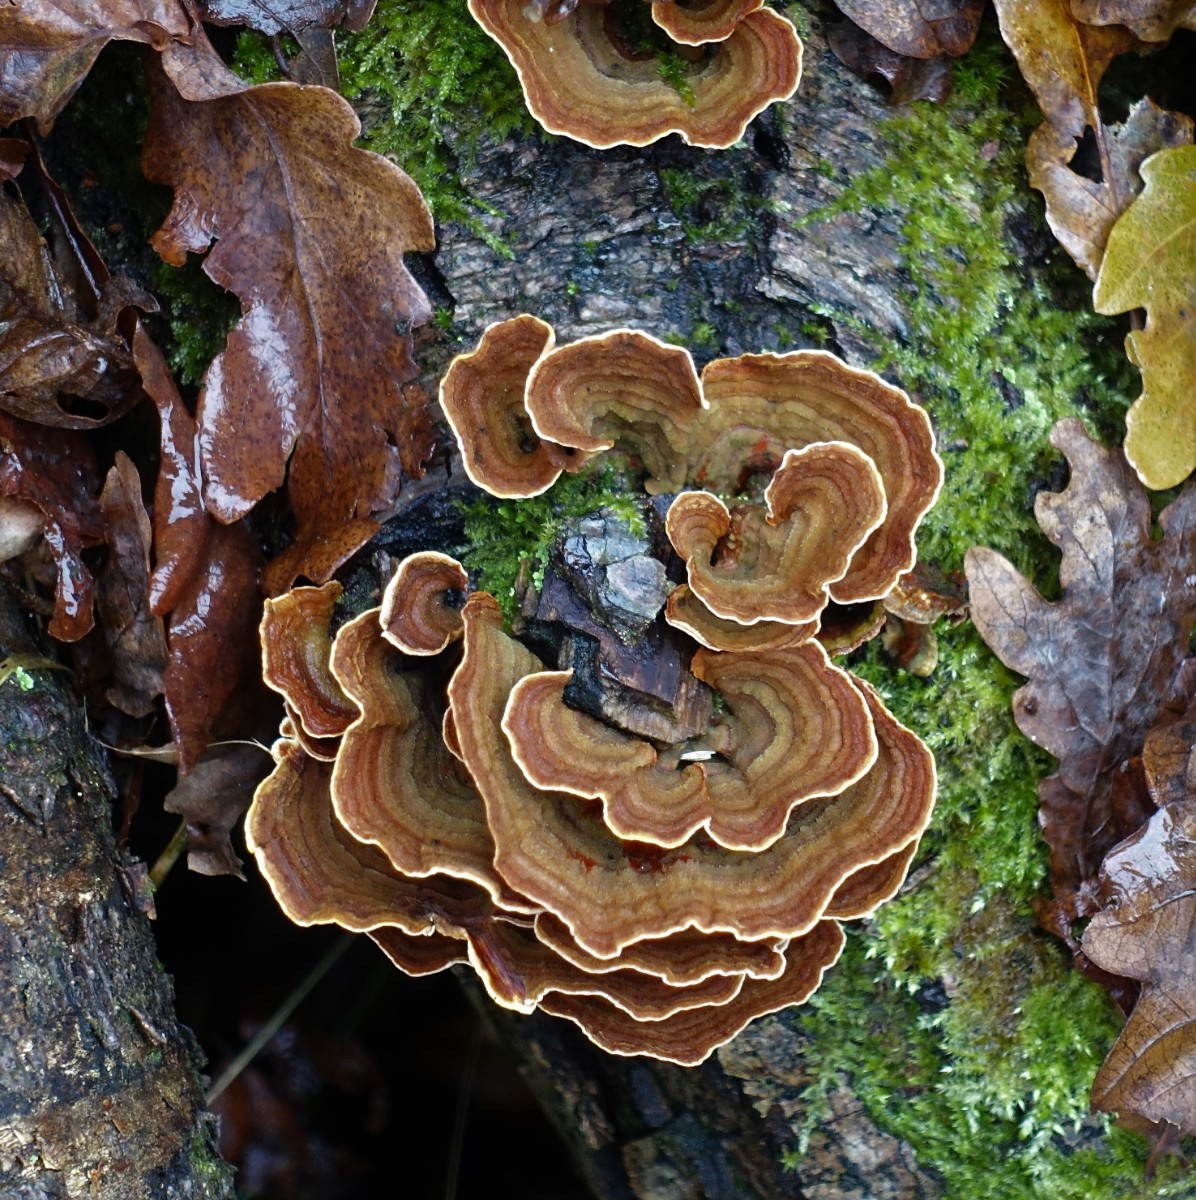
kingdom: Fungi
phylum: Basidiomycota
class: Agaricomycetes
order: Russulales
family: Stereaceae
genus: Stereum
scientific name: Stereum subtomentosum
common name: smuk lædersvamp
